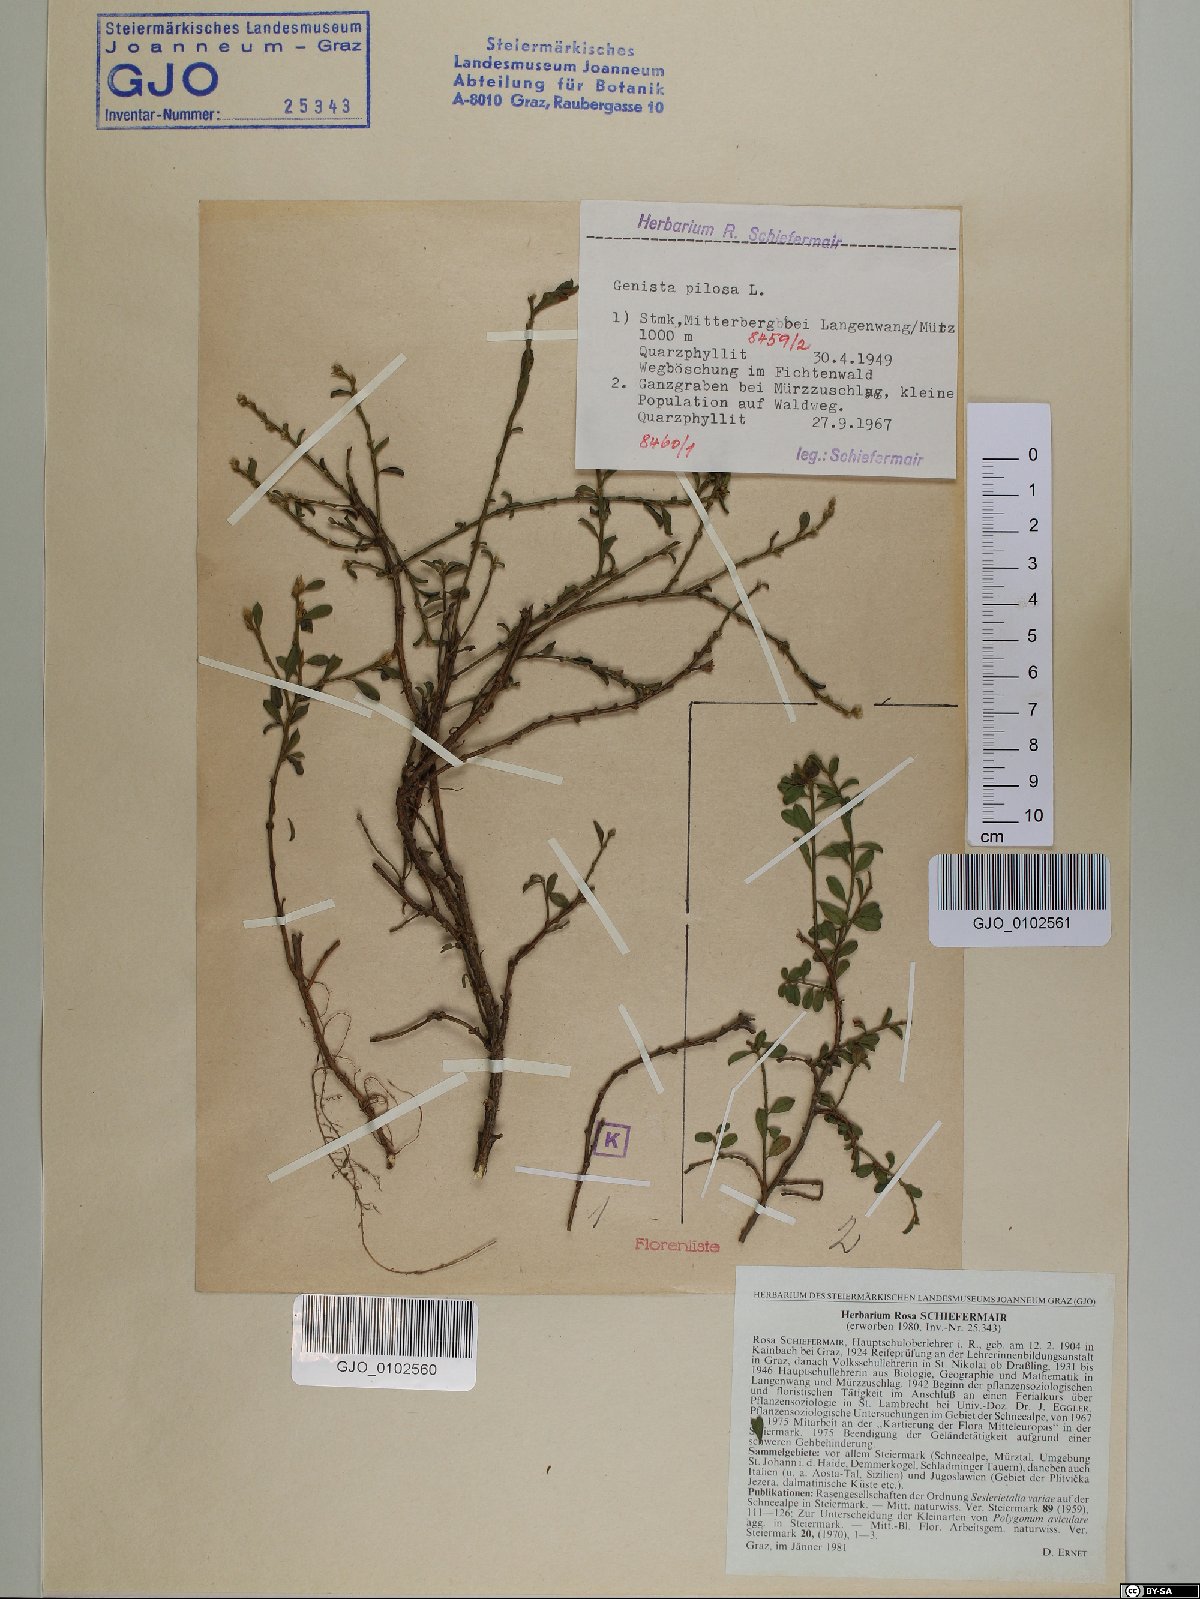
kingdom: Plantae
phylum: Tracheophyta
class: Magnoliopsida
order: Fabales
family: Fabaceae
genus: Genista
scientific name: Genista pilosa
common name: Hairy greenweed
